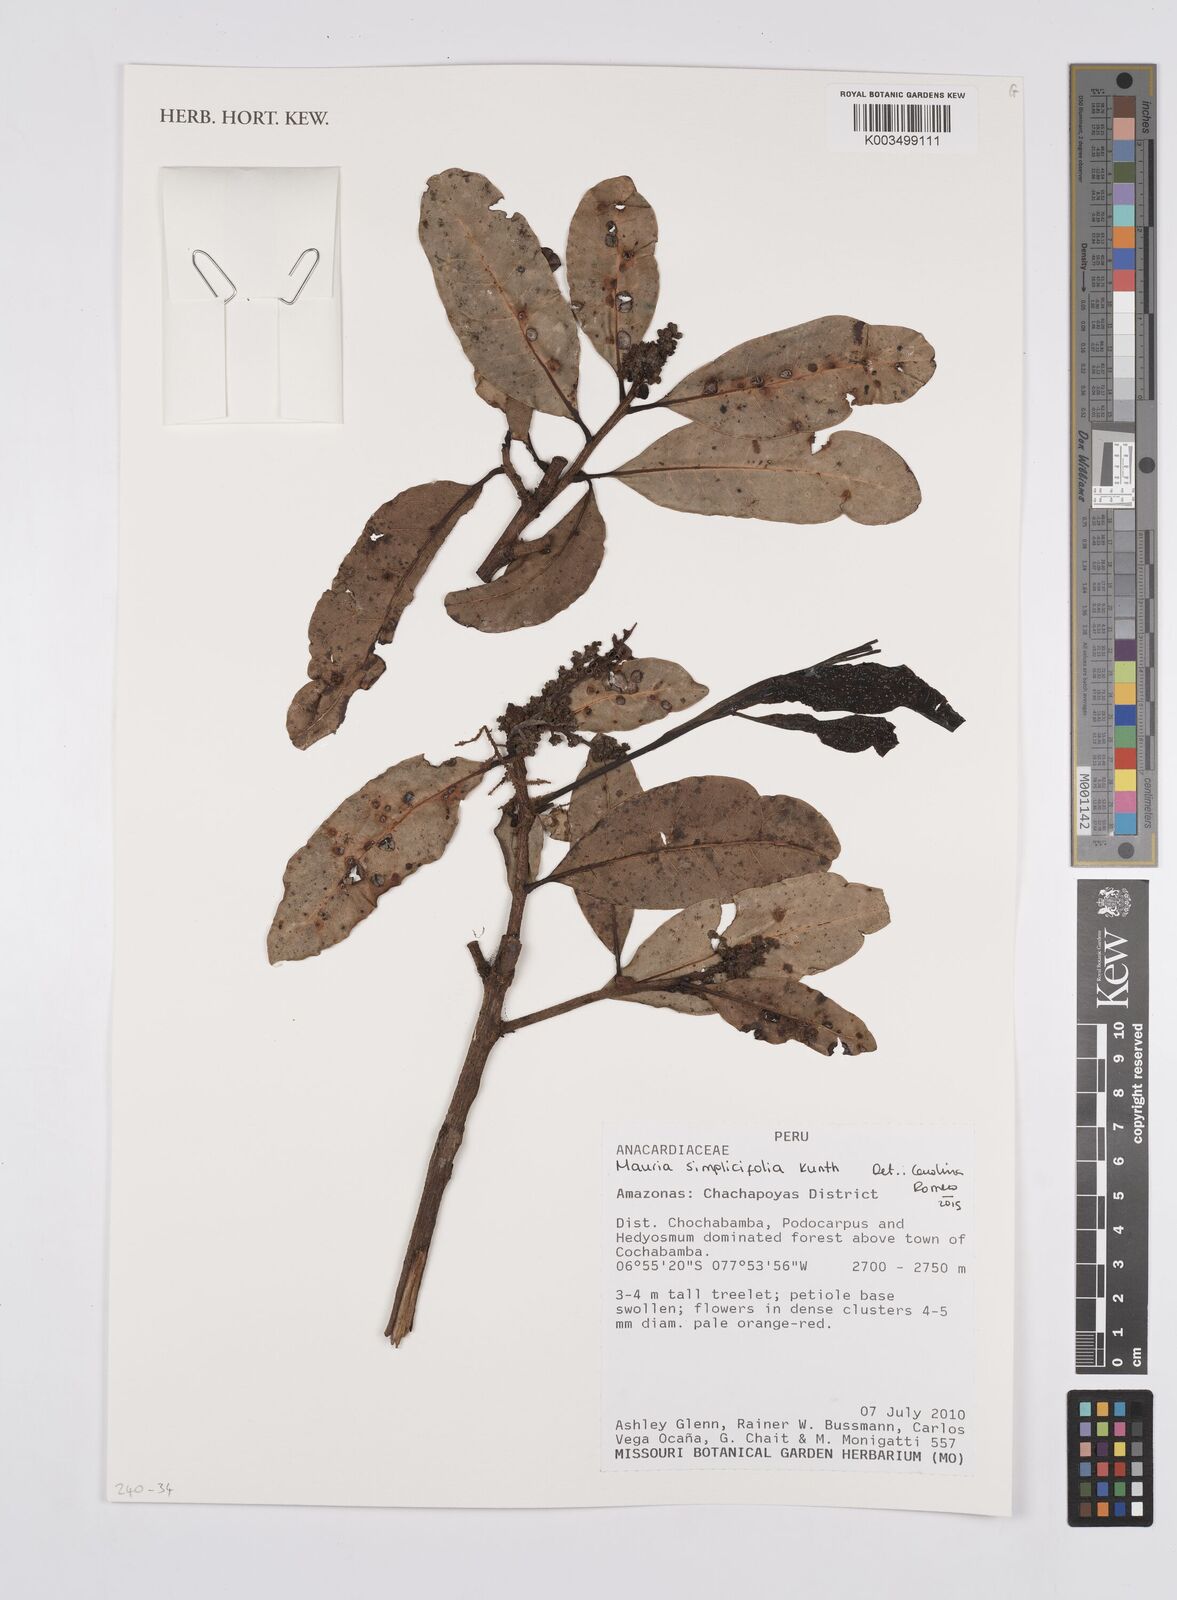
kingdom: Plantae
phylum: Tracheophyta
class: Magnoliopsida
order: Sapindales
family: Anacardiaceae
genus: Mauria
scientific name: Mauria simplicifolia
